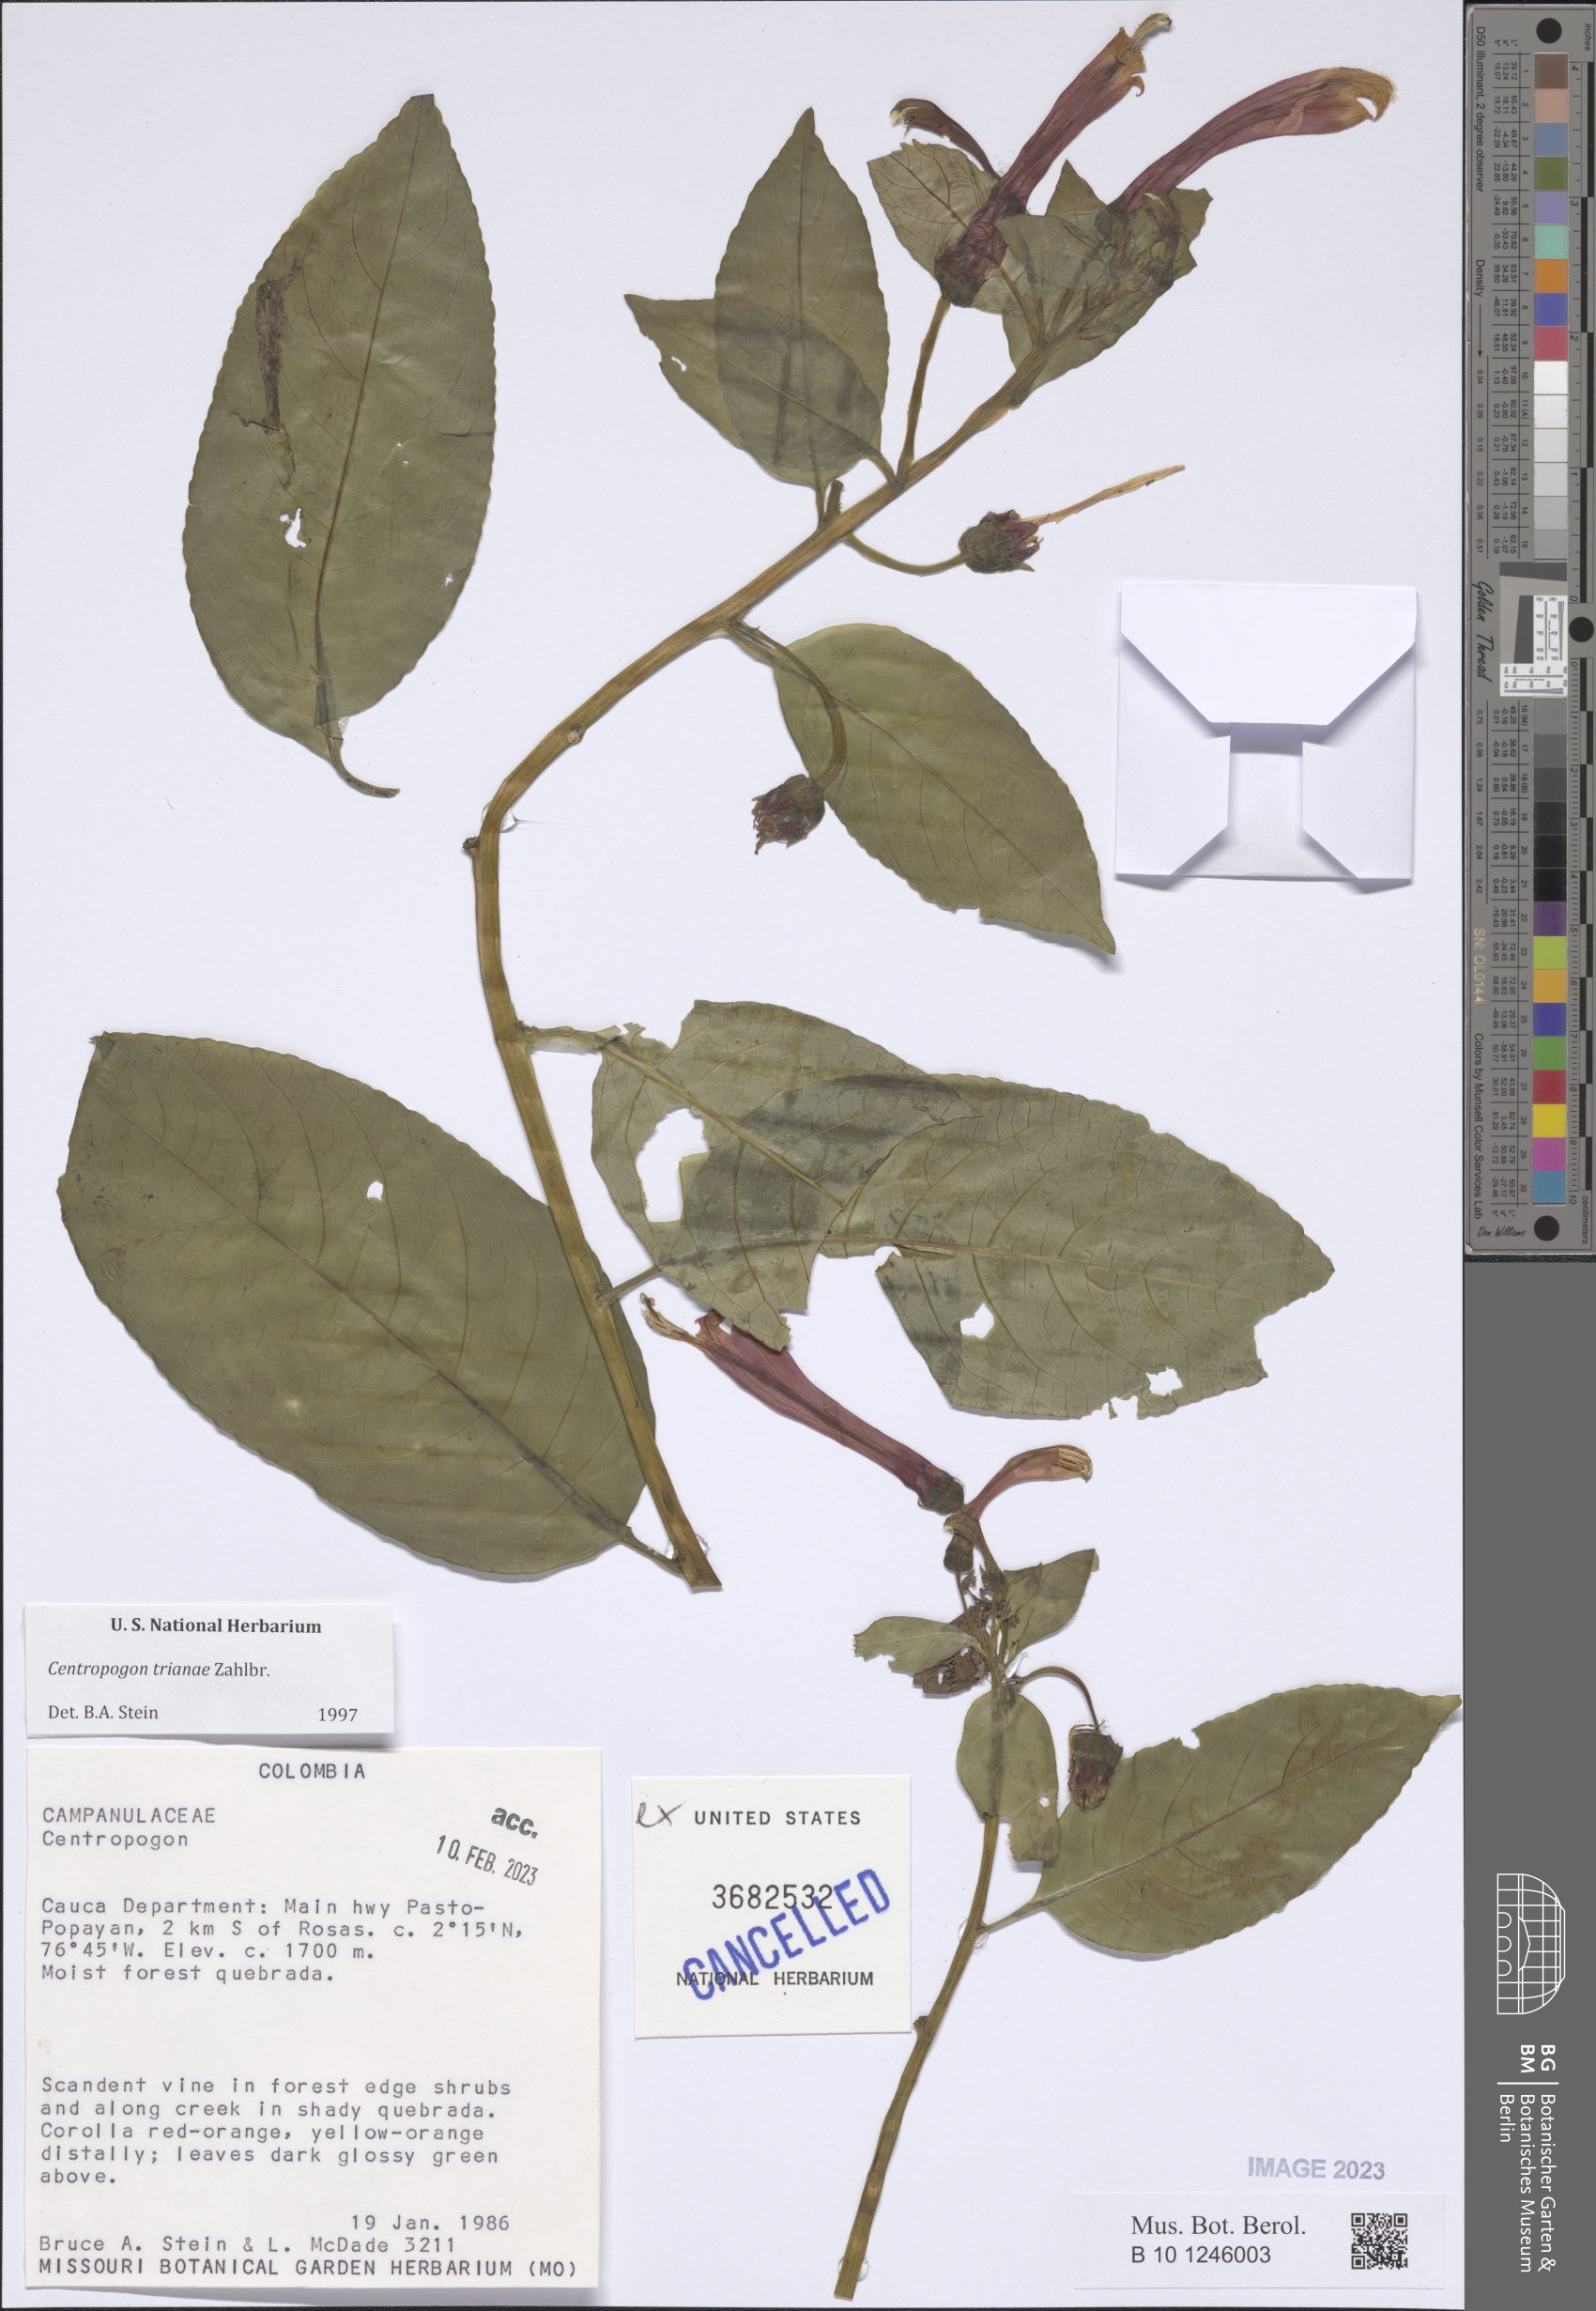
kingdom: Plantae
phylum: Tracheophyta
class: Magnoliopsida
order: Asterales
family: Campanulaceae
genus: Centropogon
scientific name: Centropogon trianae
